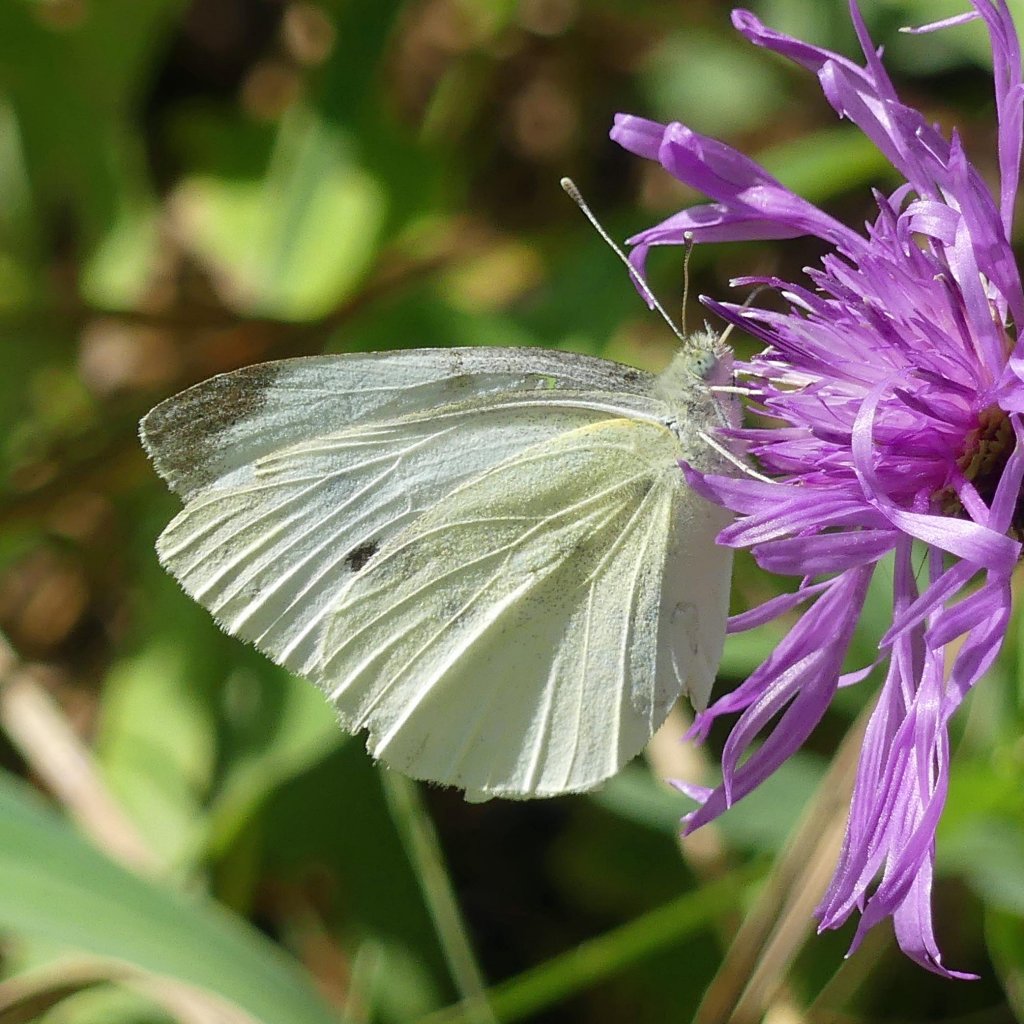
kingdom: Animalia
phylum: Arthropoda
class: Insecta
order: Lepidoptera
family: Pieridae
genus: Pieris
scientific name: Pieris rapae
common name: Cabbage White
